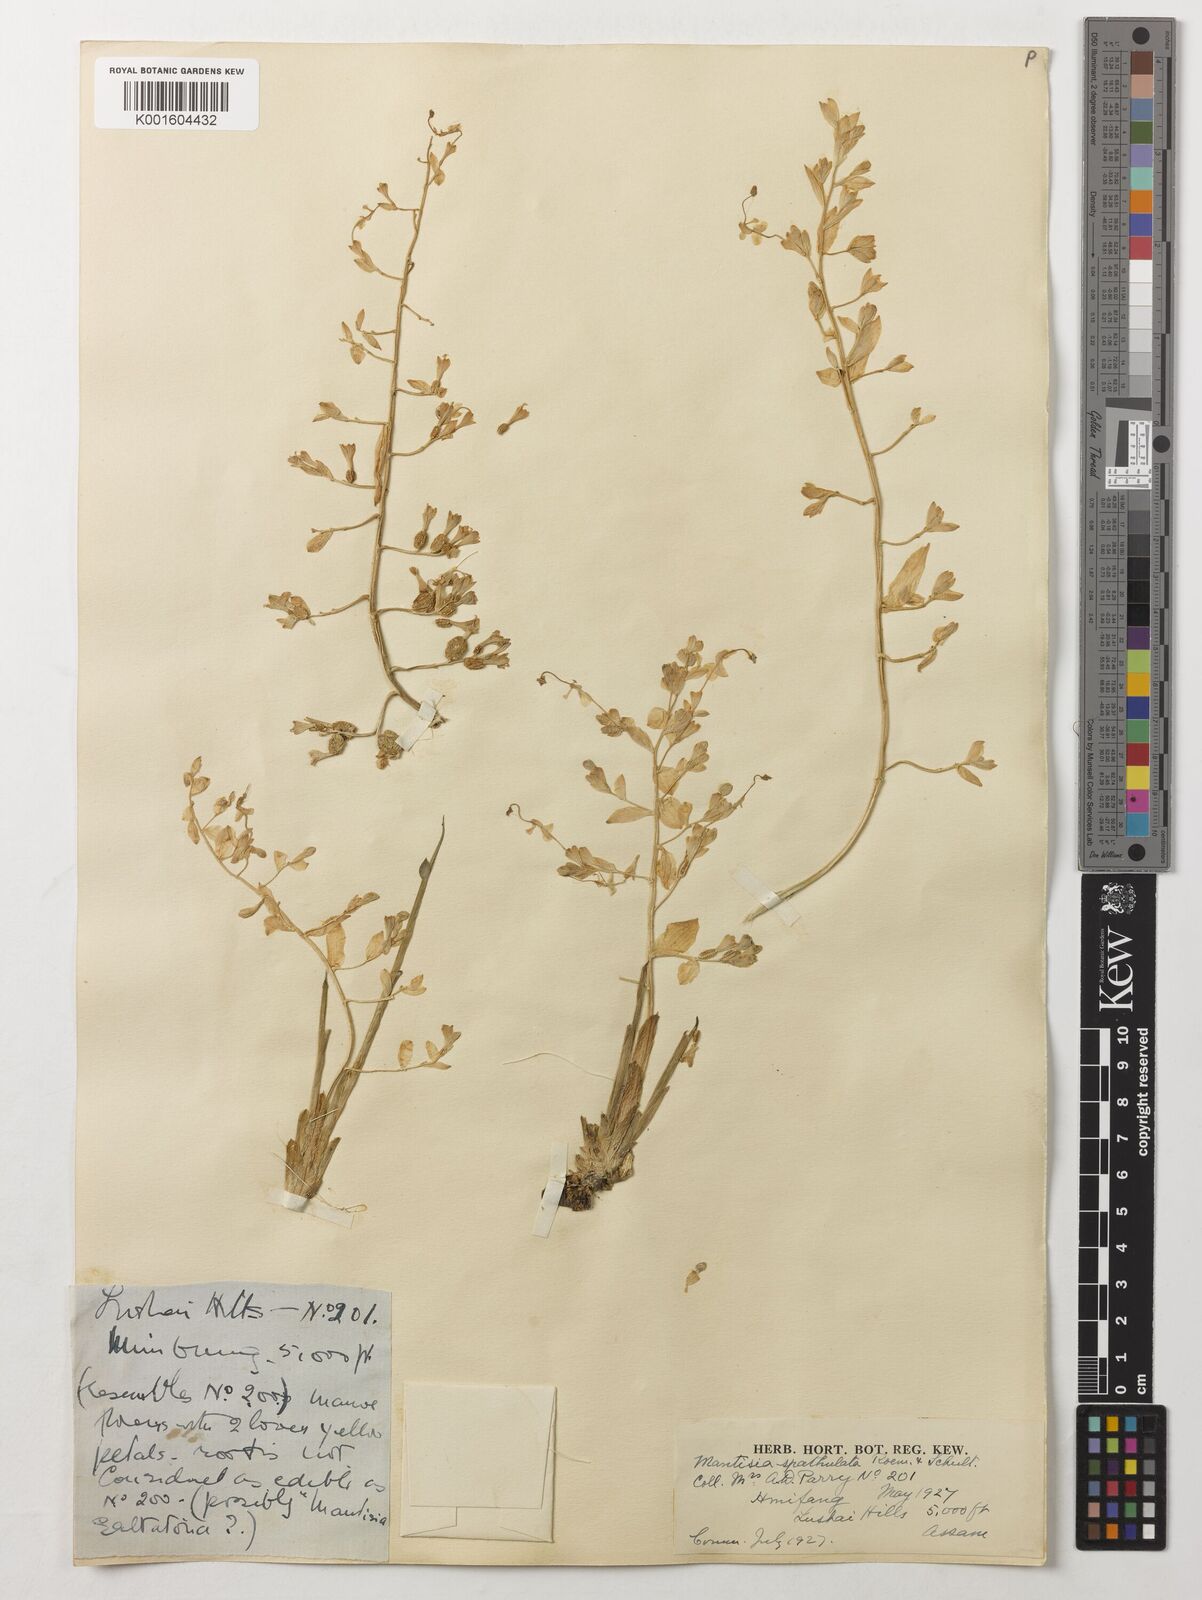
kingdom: Plantae
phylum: Tracheophyta
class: Liliopsida
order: Zingiberales
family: Zingiberaceae
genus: Globba
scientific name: Globba spathulata
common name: Dancing girl flower
